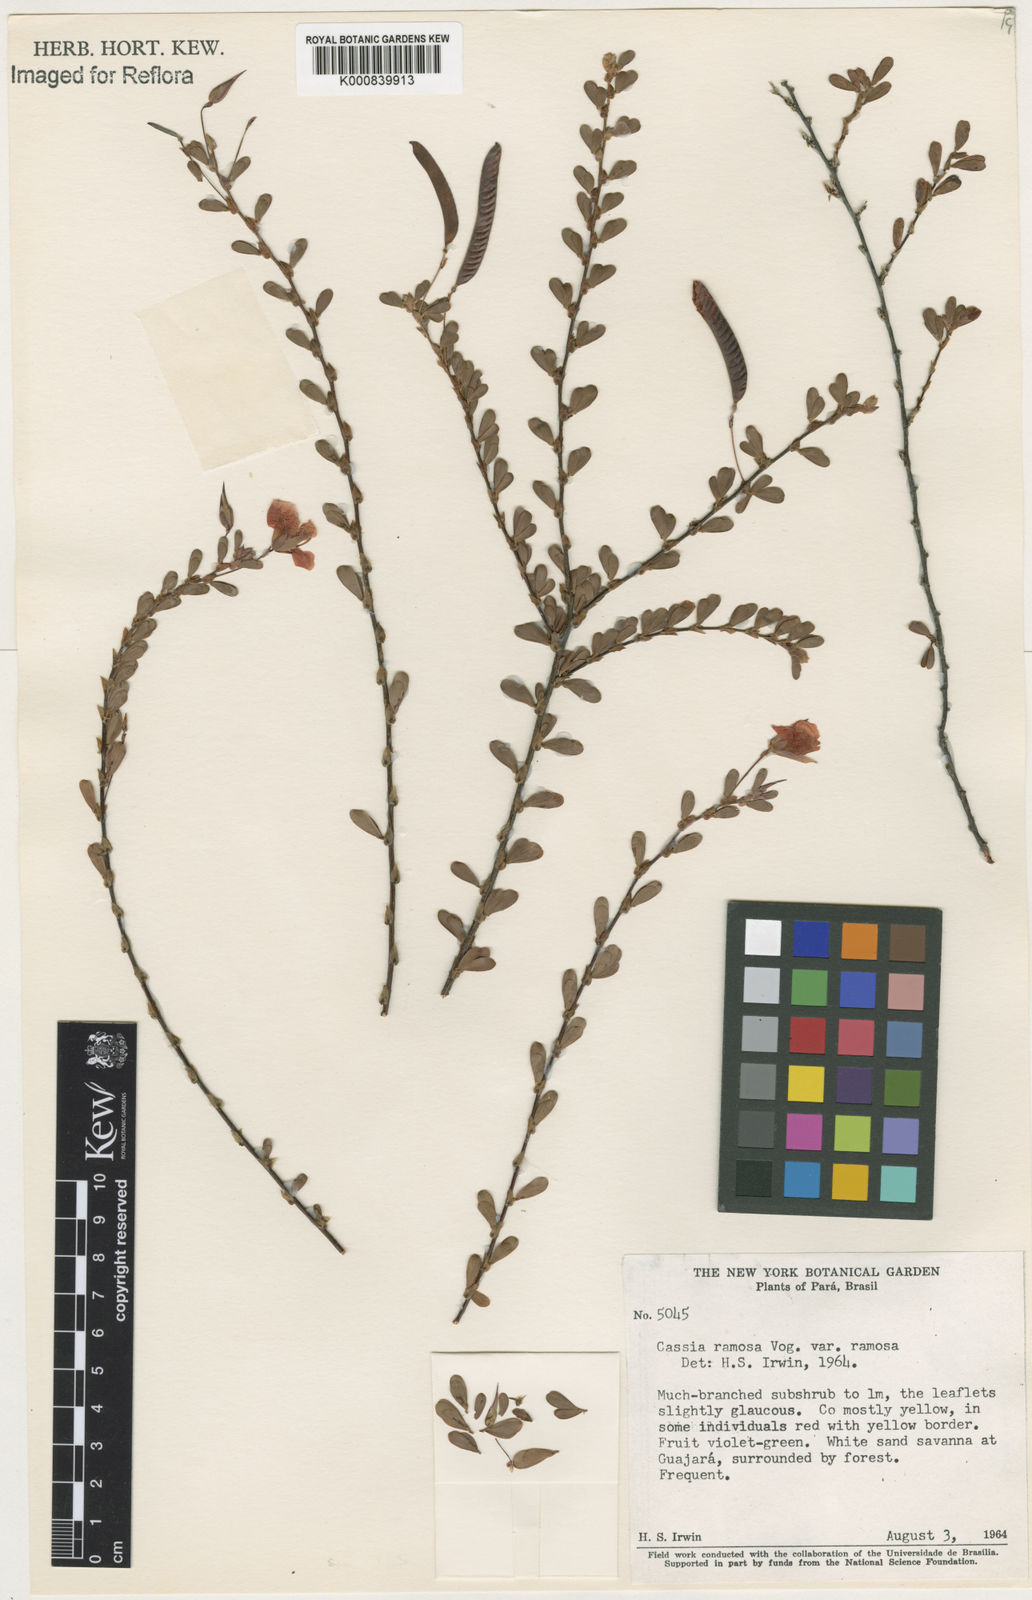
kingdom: Plantae
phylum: Tracheophyta
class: Magnoliopsida
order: Fabales
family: Fabaceae
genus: Chamaecrista
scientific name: Chamaecrista ramosa
